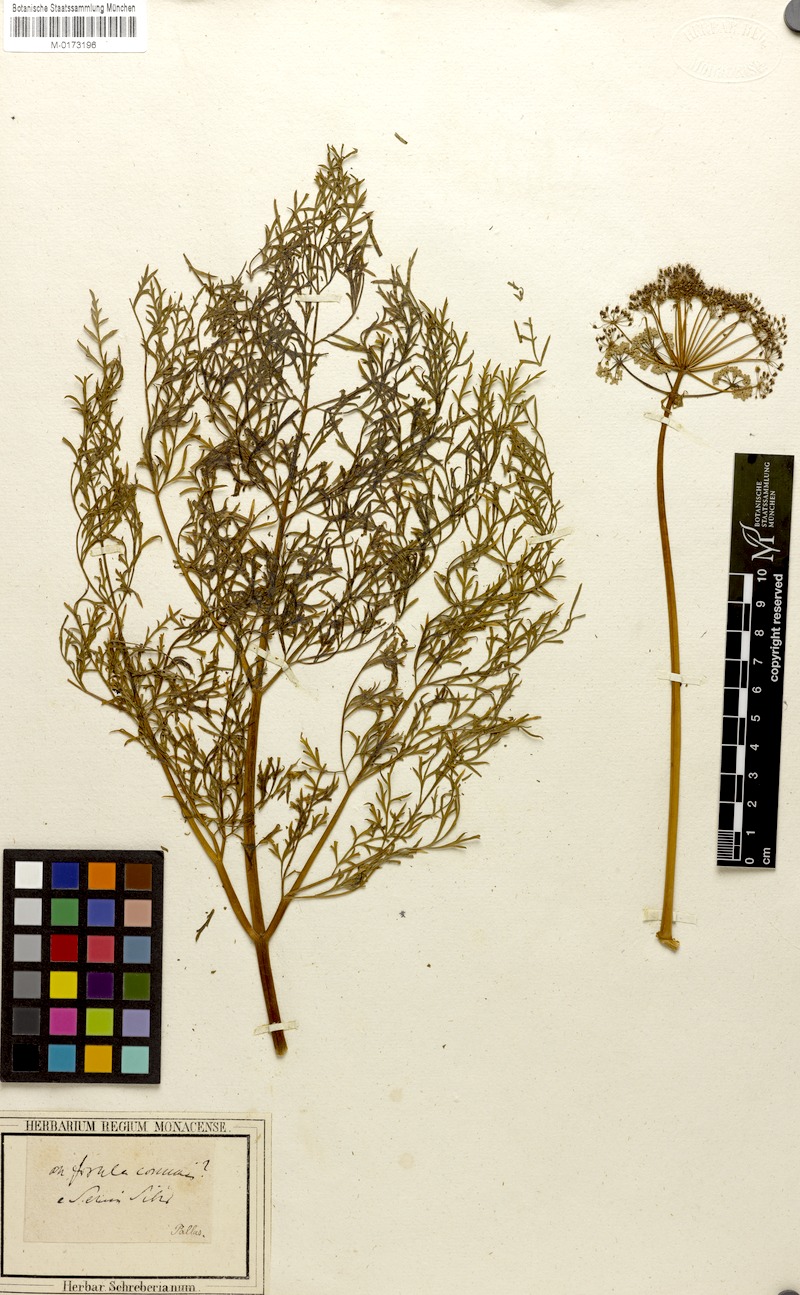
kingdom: Plantae
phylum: Tracheophyta
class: Magnoliopsida
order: Apiales
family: Apiaceae
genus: Ferula
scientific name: Ferula
